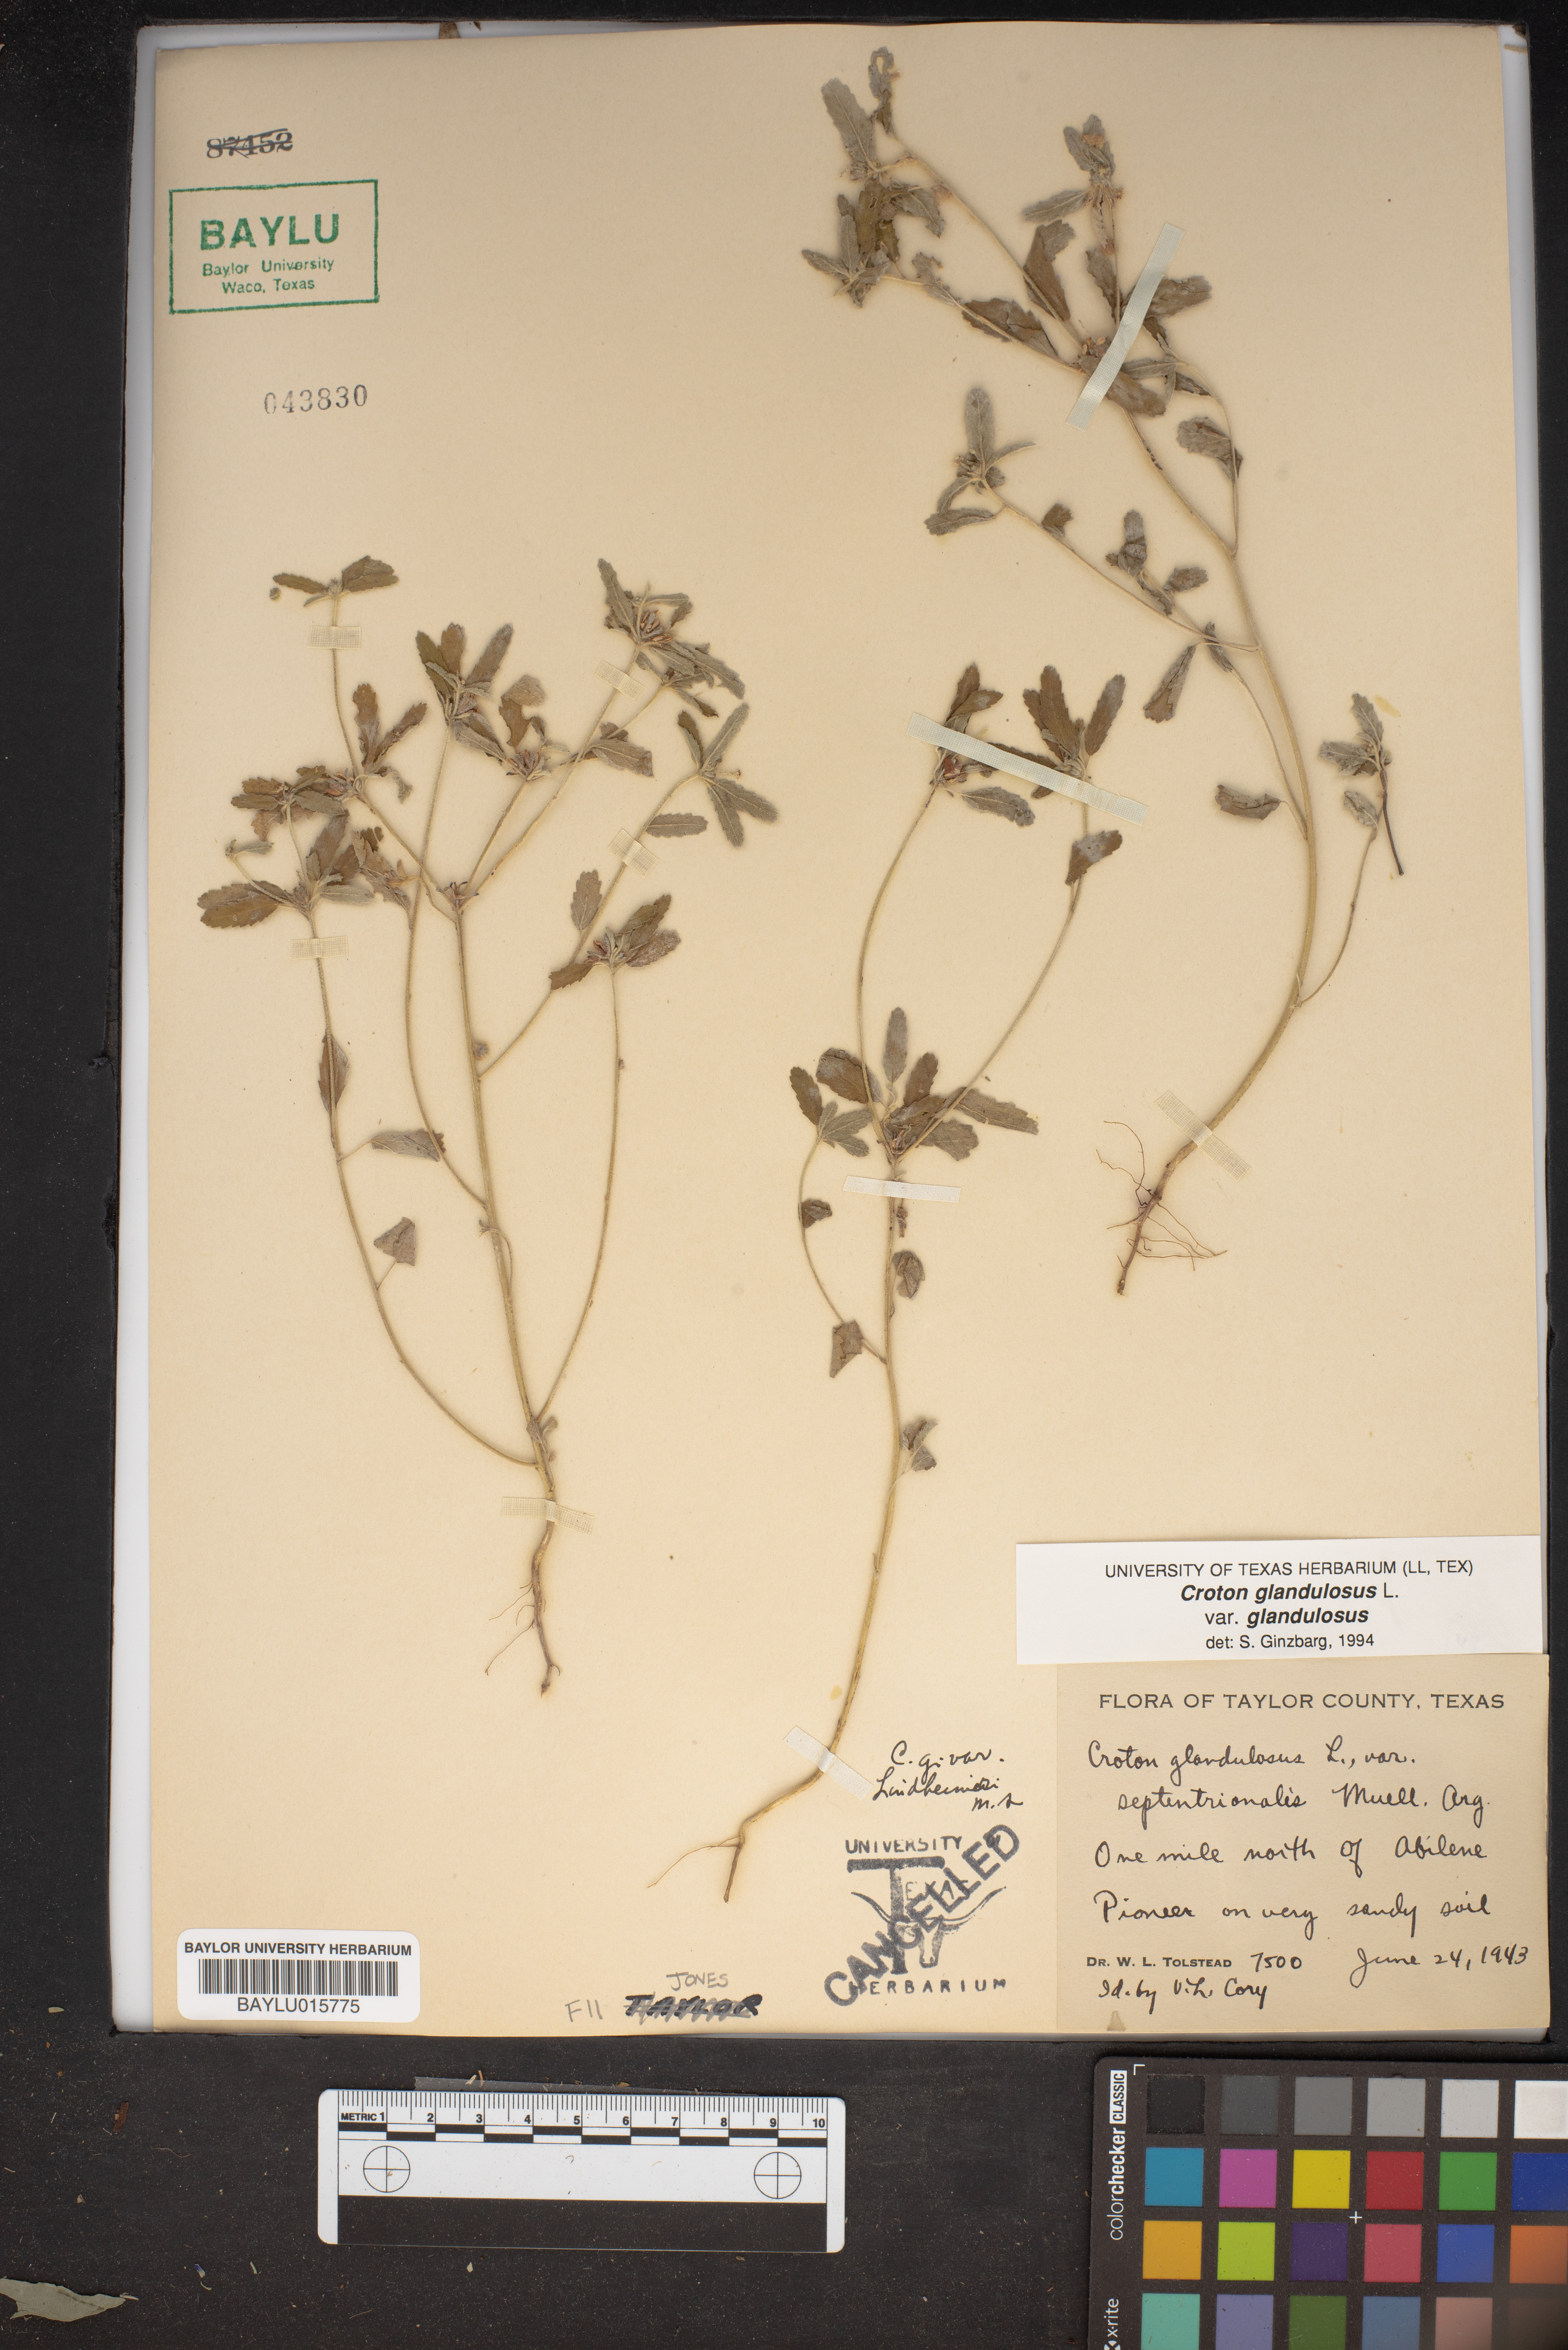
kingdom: Plantae
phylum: Tracheophyta
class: Magnoliopsida
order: Malpighiales
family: Euphorbiaceae
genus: Croton
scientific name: Croton glandulosus
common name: Tropic croton
